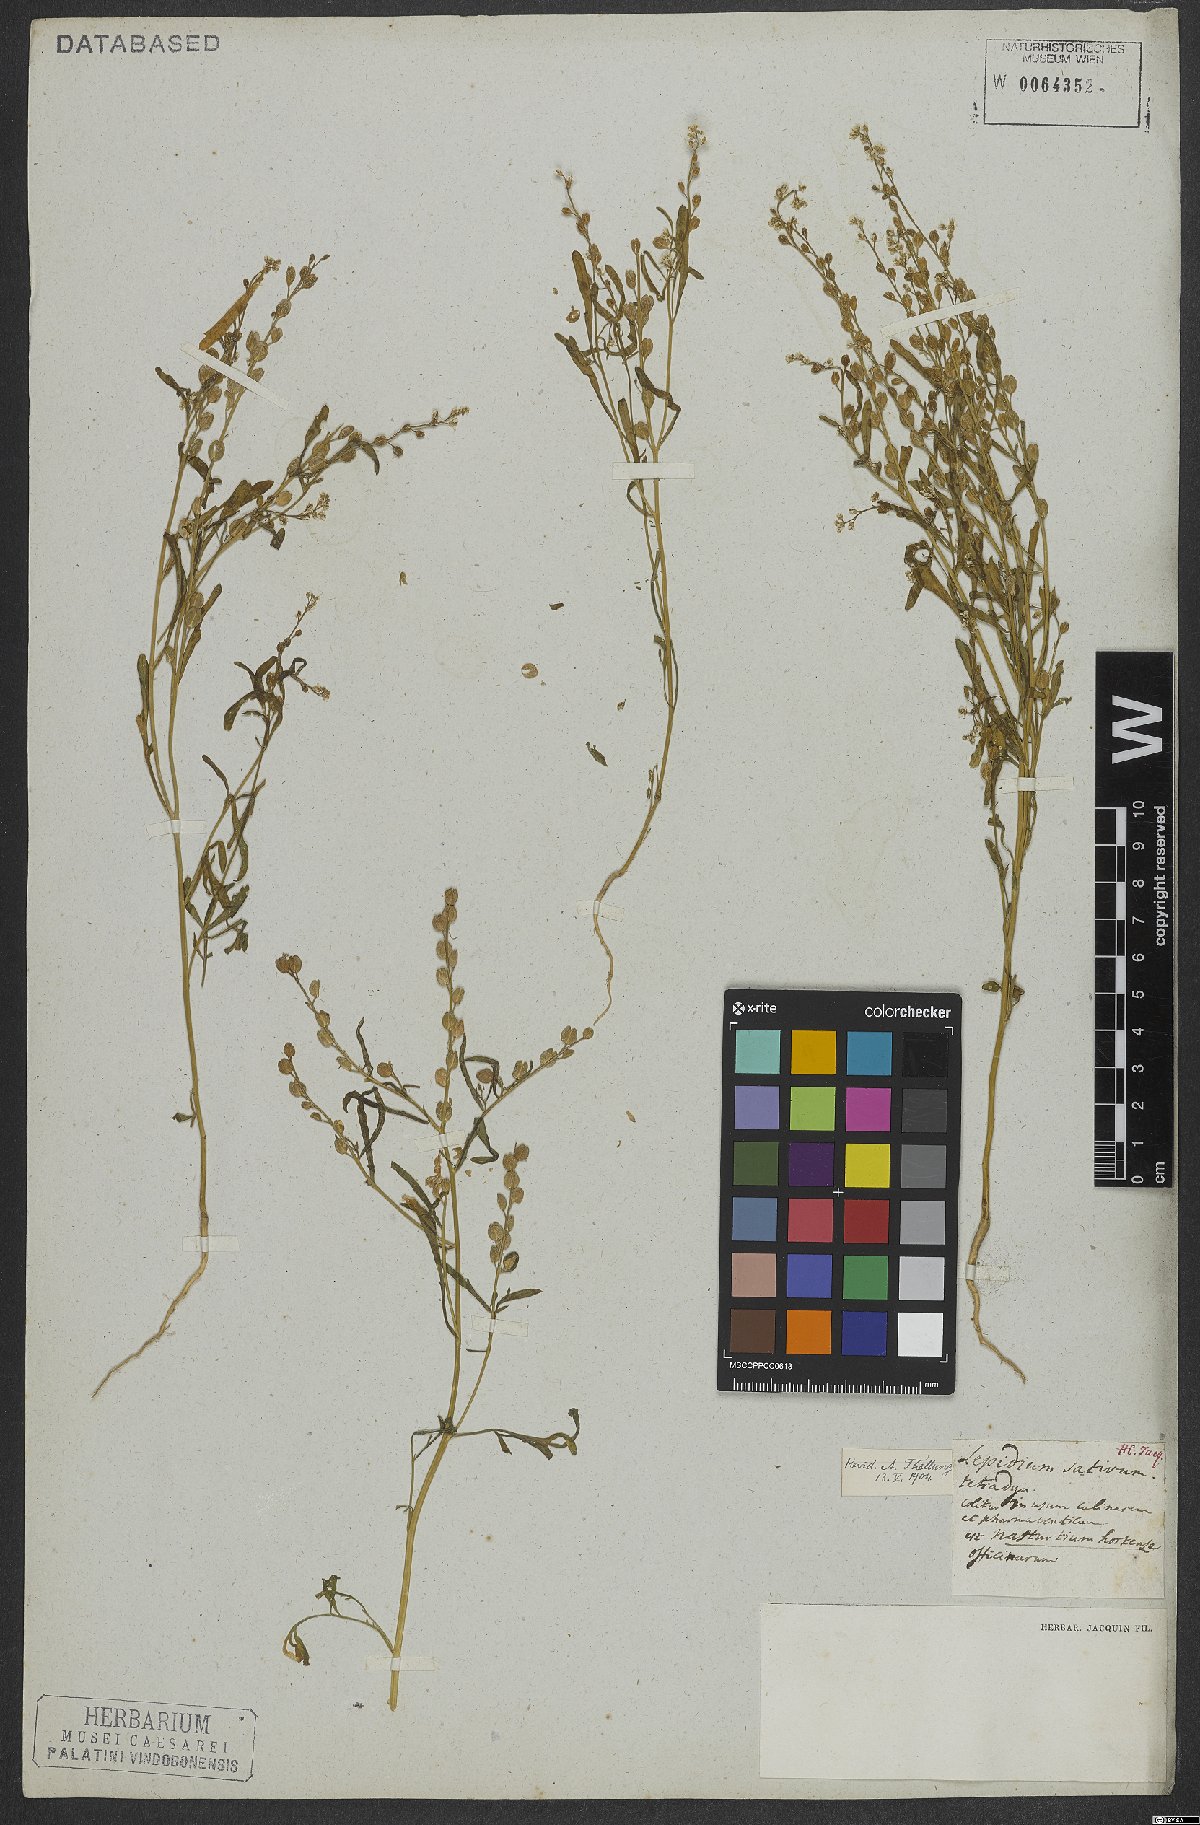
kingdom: Plantae
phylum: Tracheophyta
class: Magnoliopsida
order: Brassicales
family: Brassicaceae
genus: Lepidium
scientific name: Lepidium sativum
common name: Garden cress
